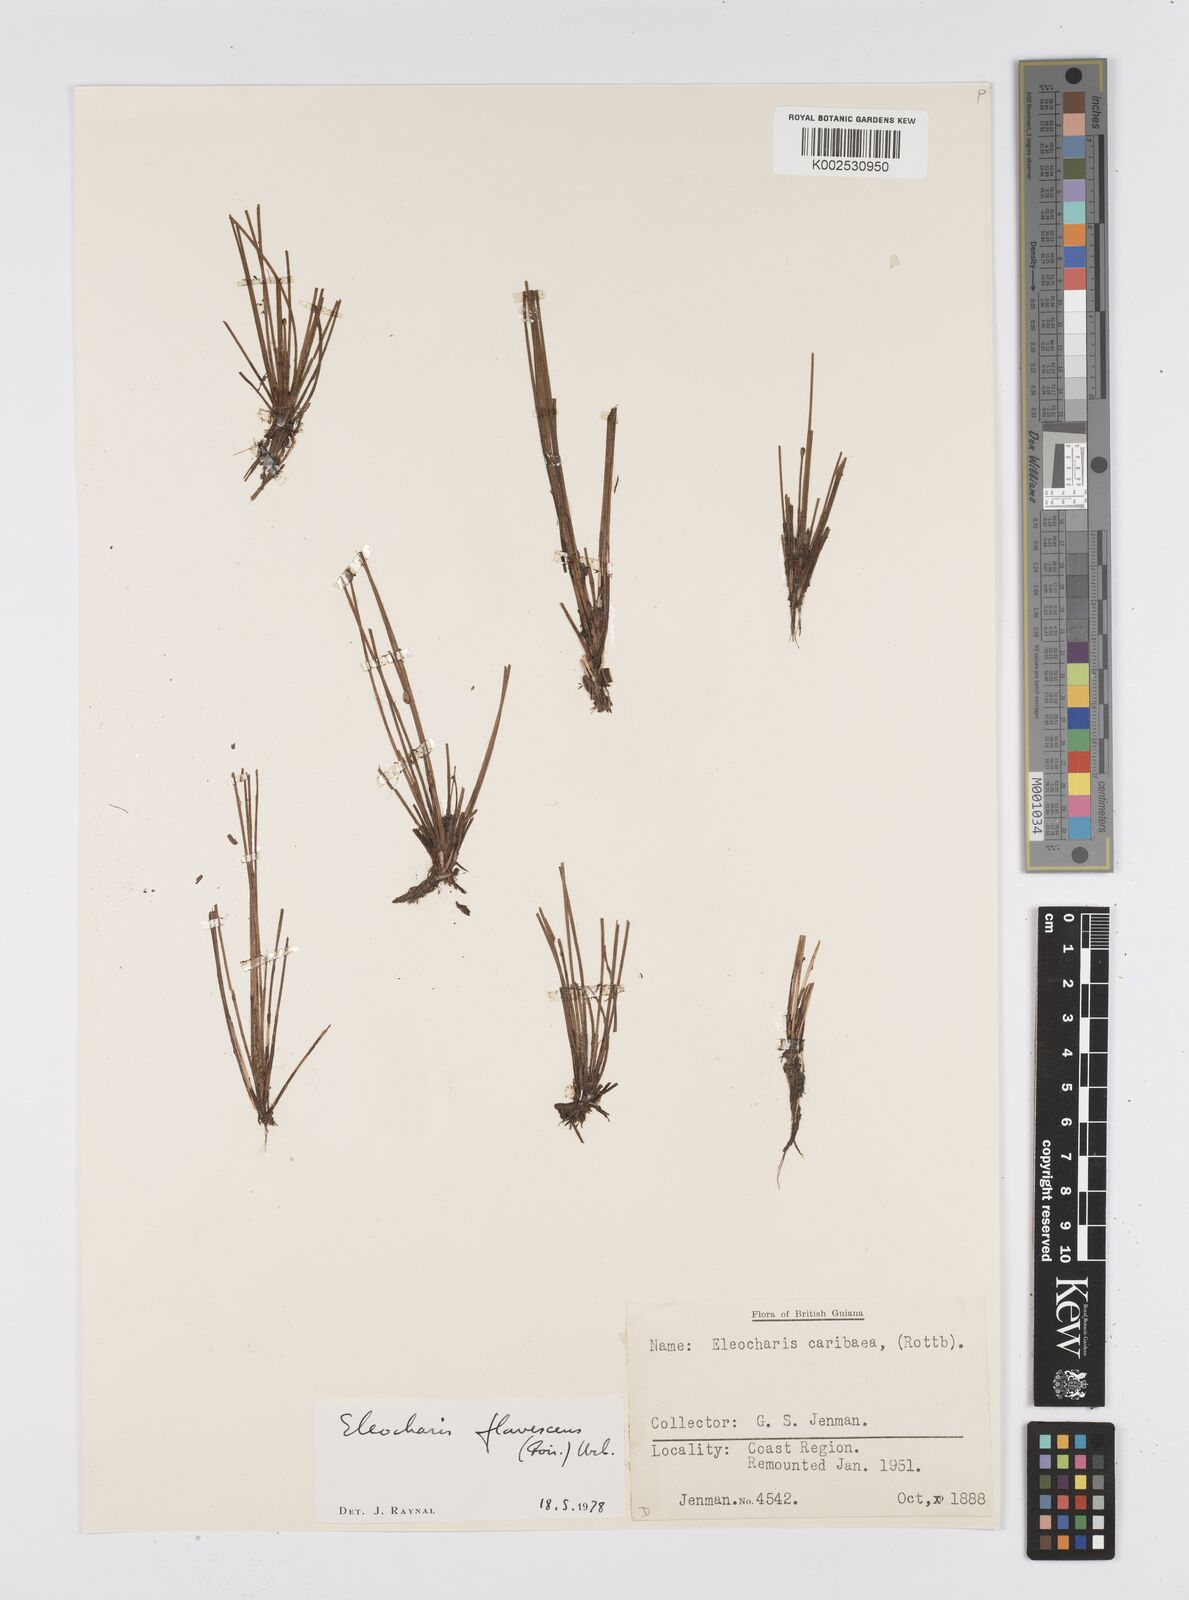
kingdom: Plantae
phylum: Tracheophyta
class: Liliopsida
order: Poales
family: Cyperaceae
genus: Eleocharis
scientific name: Eleocharis flavescens
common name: Yellow spikerush
